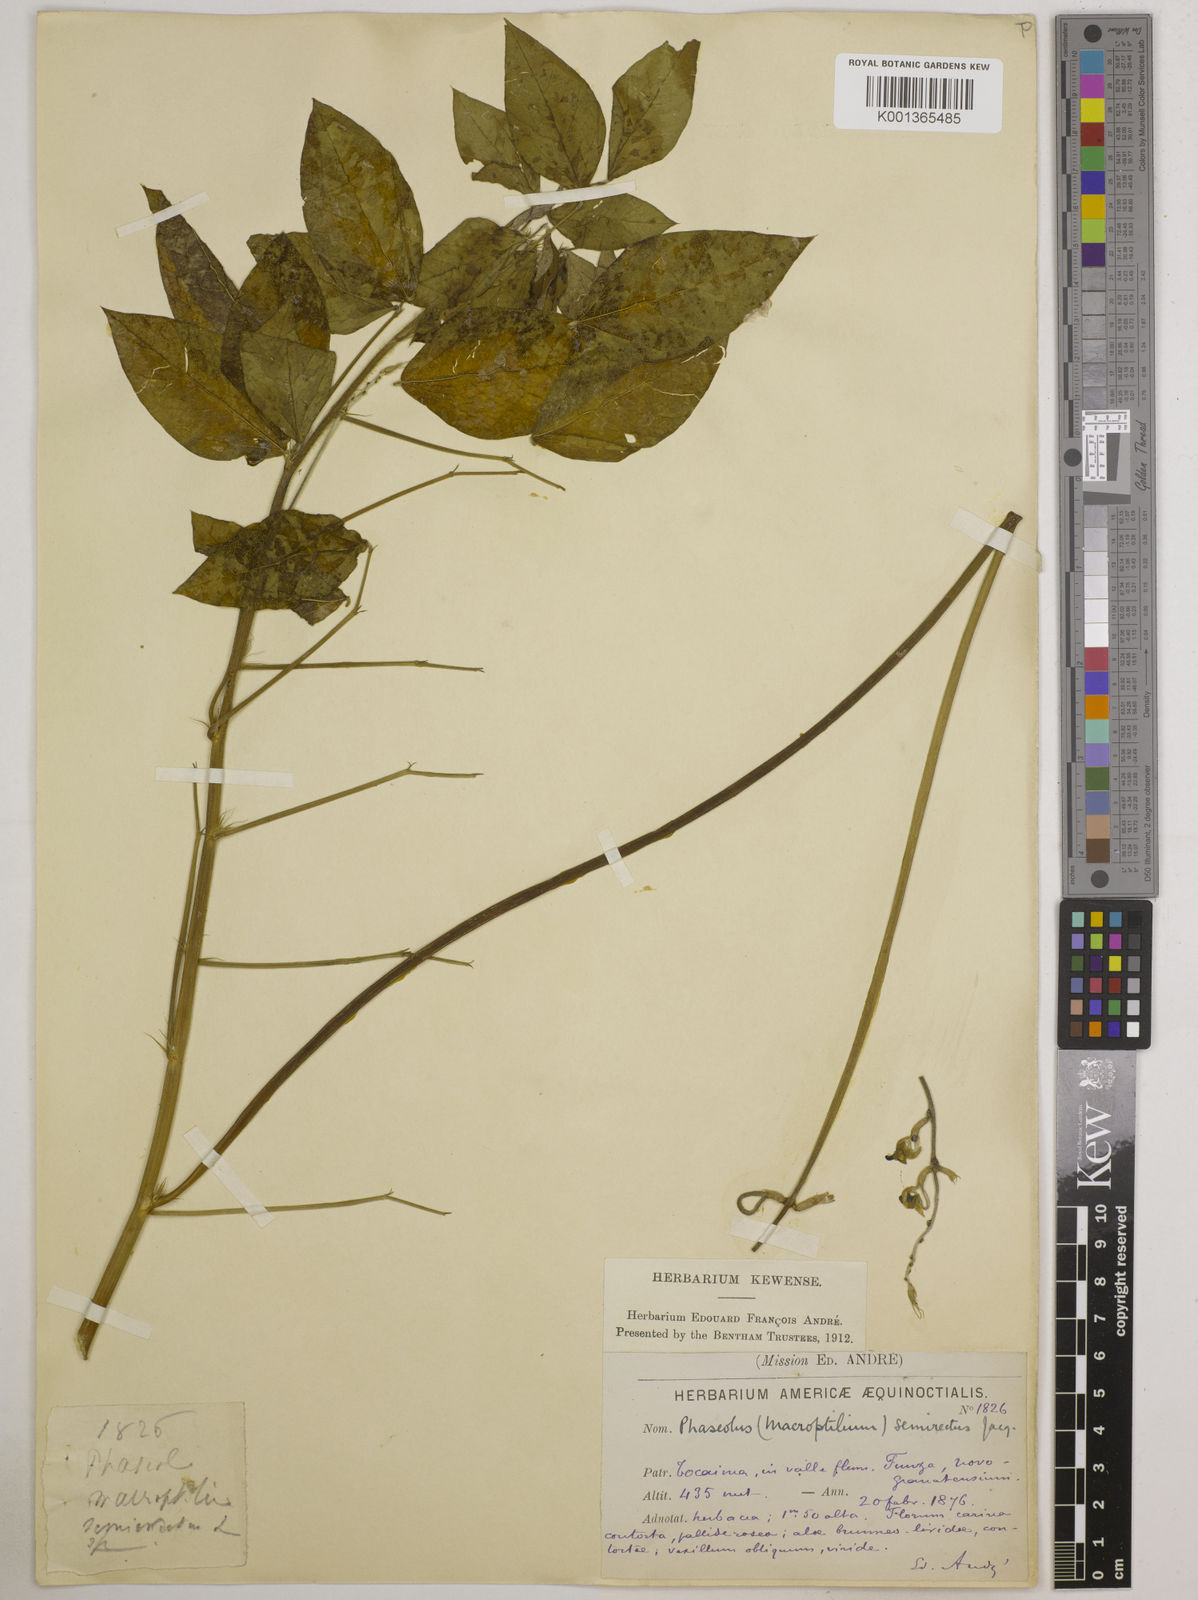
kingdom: Plantae
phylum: Tracheophyta
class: Magnoliopsida
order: Fabales
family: Fabaceae
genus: Macroptilium
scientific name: Macroptilium lathyroides
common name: Wild bushbean
